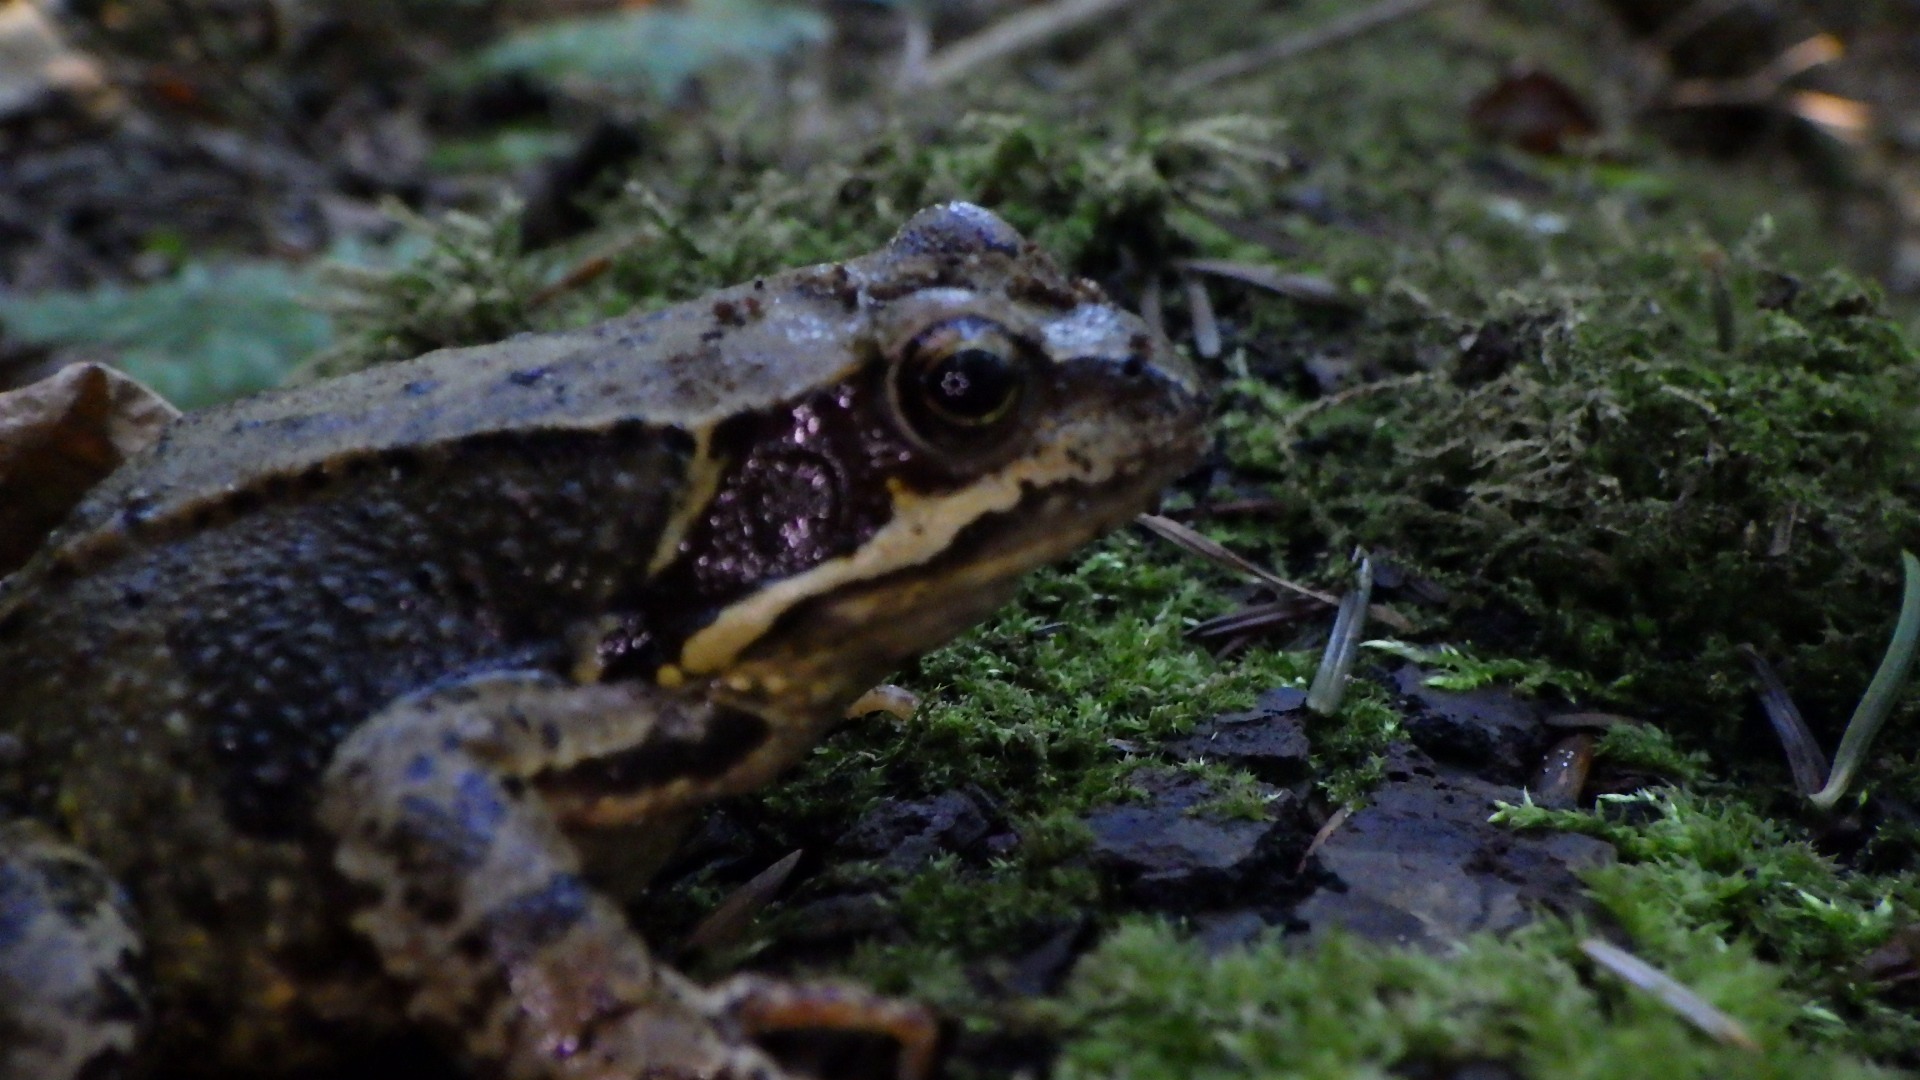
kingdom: Animalia
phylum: Chordata
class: Amphibia
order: Anura
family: Ranidae
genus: Rana
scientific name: Rana temporaria
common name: Butsnudet frø
